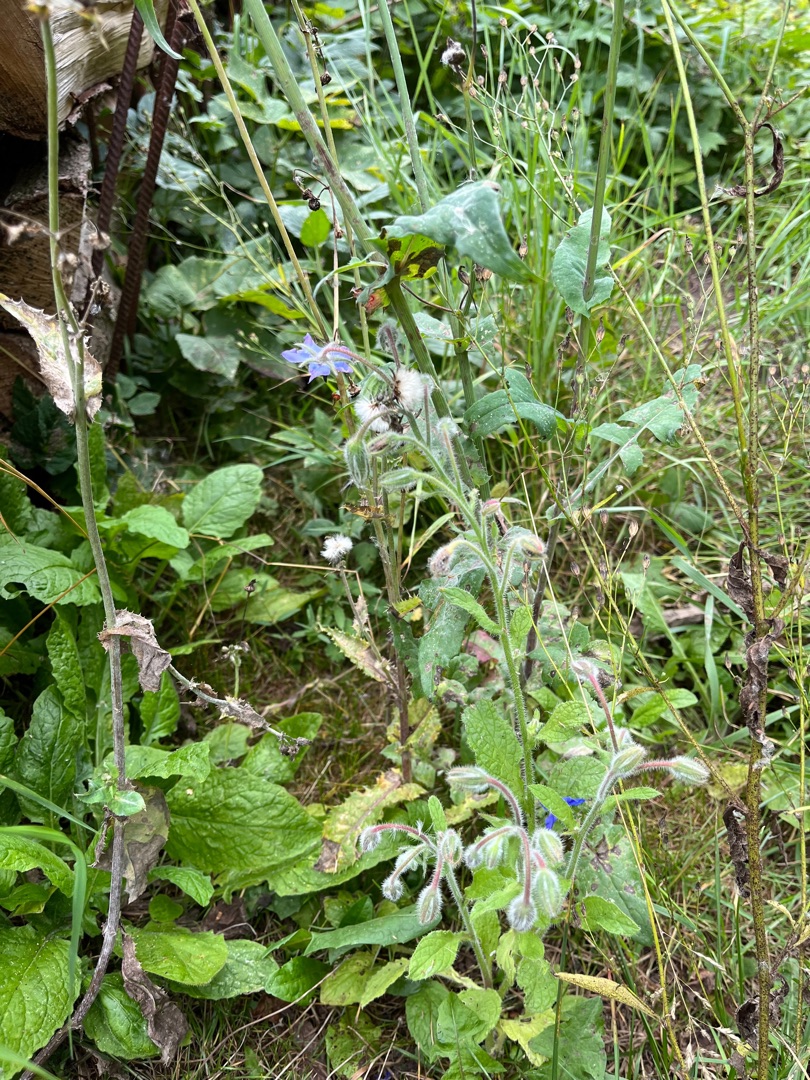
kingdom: Plantae
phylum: Tracheophyta
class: Magnoliopsida
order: Boraginales
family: Boraginaceae
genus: Borago
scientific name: Borago officinalis
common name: Hjulkrone
